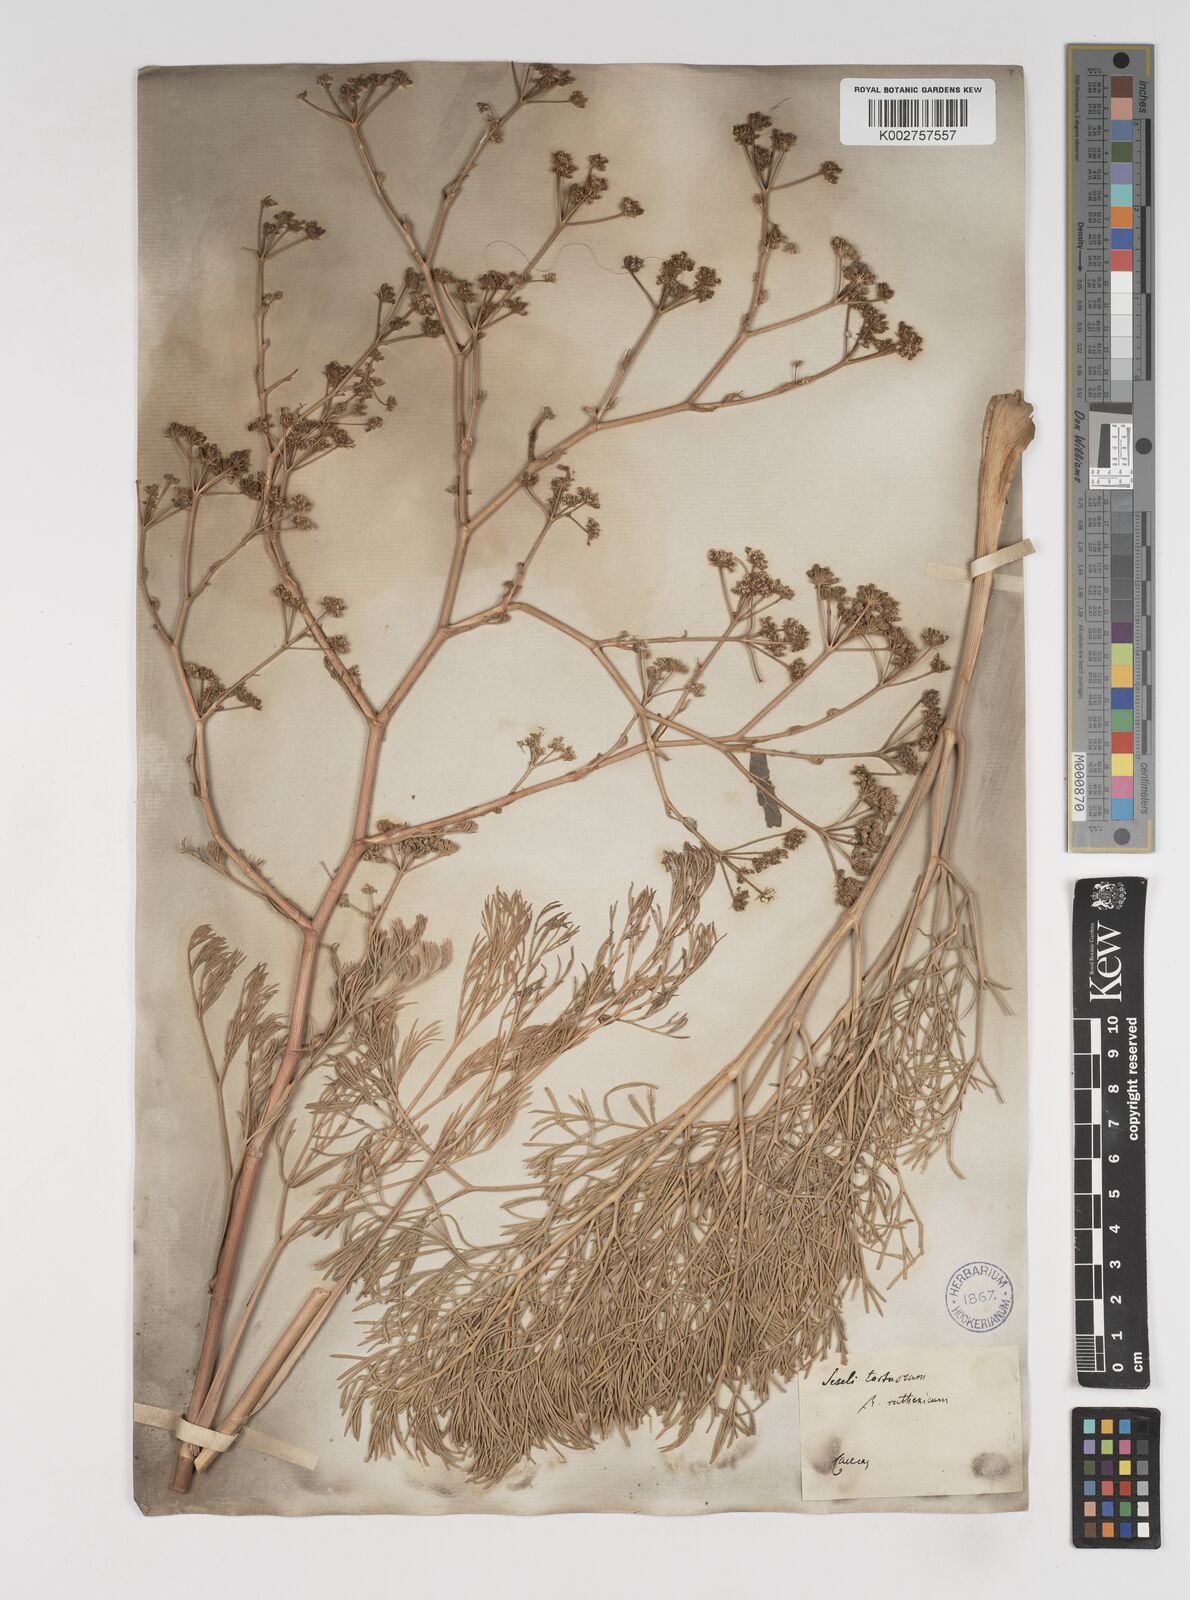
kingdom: Plantae
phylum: Tracheophyta
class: Magnoliopsida
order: Apiales
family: Apiaceae
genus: Seseli
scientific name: Seseli tortuosum
